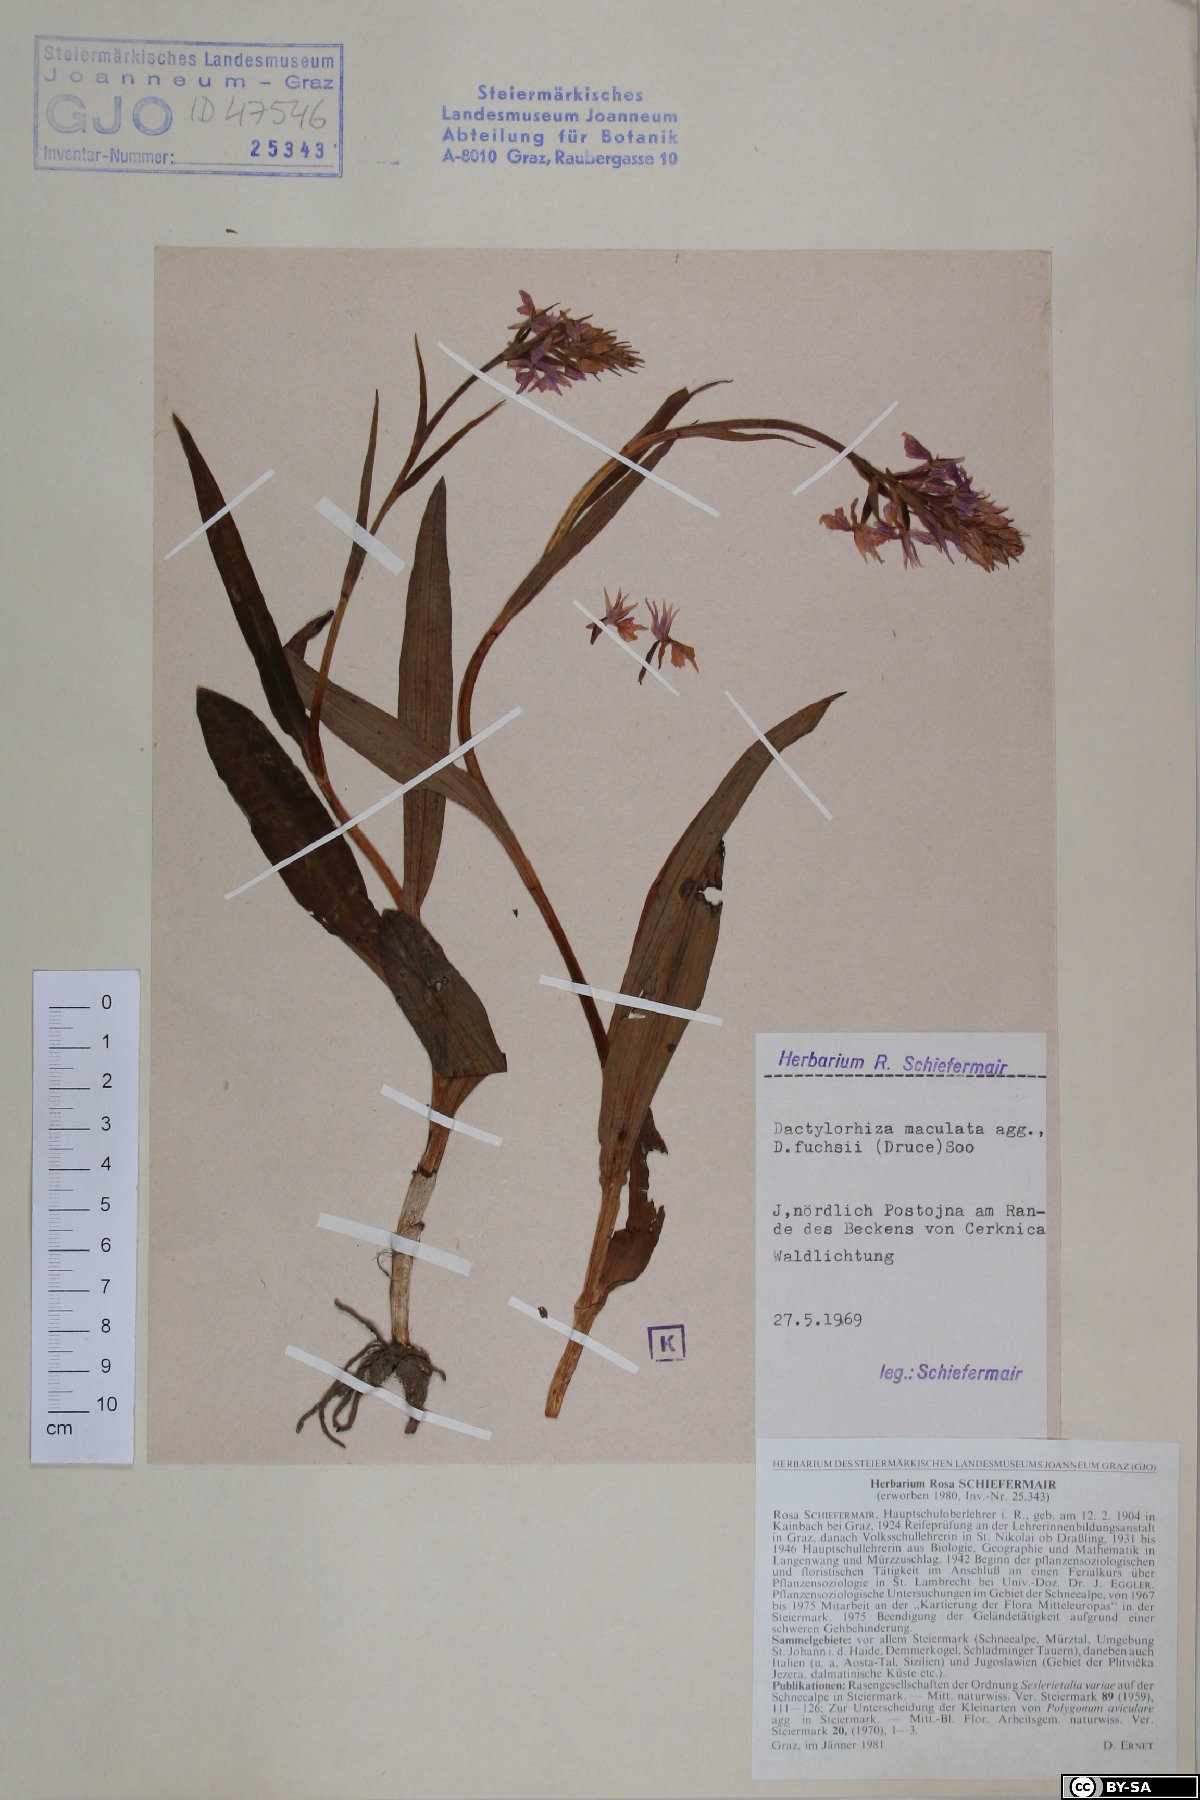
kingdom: Plantae
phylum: Tracheophyta
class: Liliopsida
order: Asparagales
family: Orchidaceae
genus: Dactylorhiza
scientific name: Dactylorhiza maculata
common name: Heath spotted-orchid
